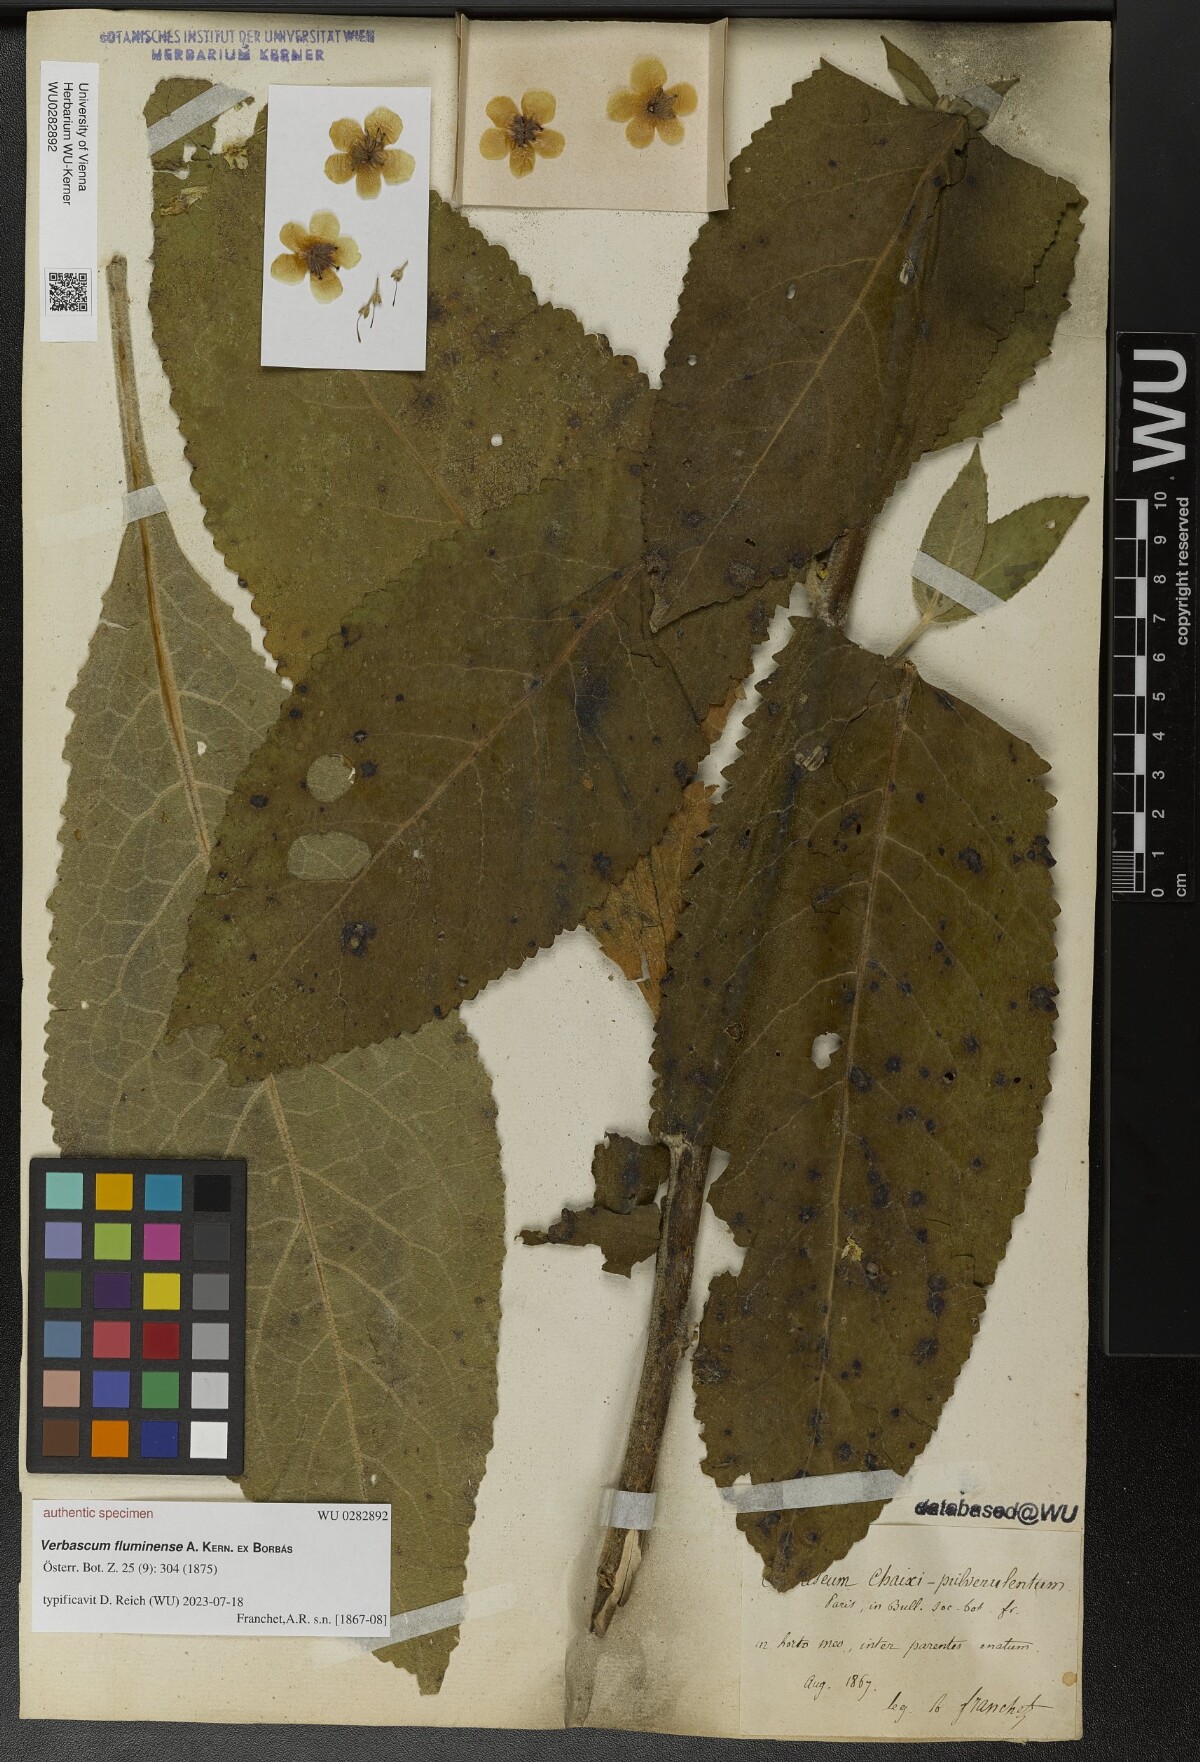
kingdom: Plantae
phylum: Tracheophyta
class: Magnoliopsida
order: Lamiales
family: Scrophulariaceae
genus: Verbascum
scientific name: Verbascum fluminense
